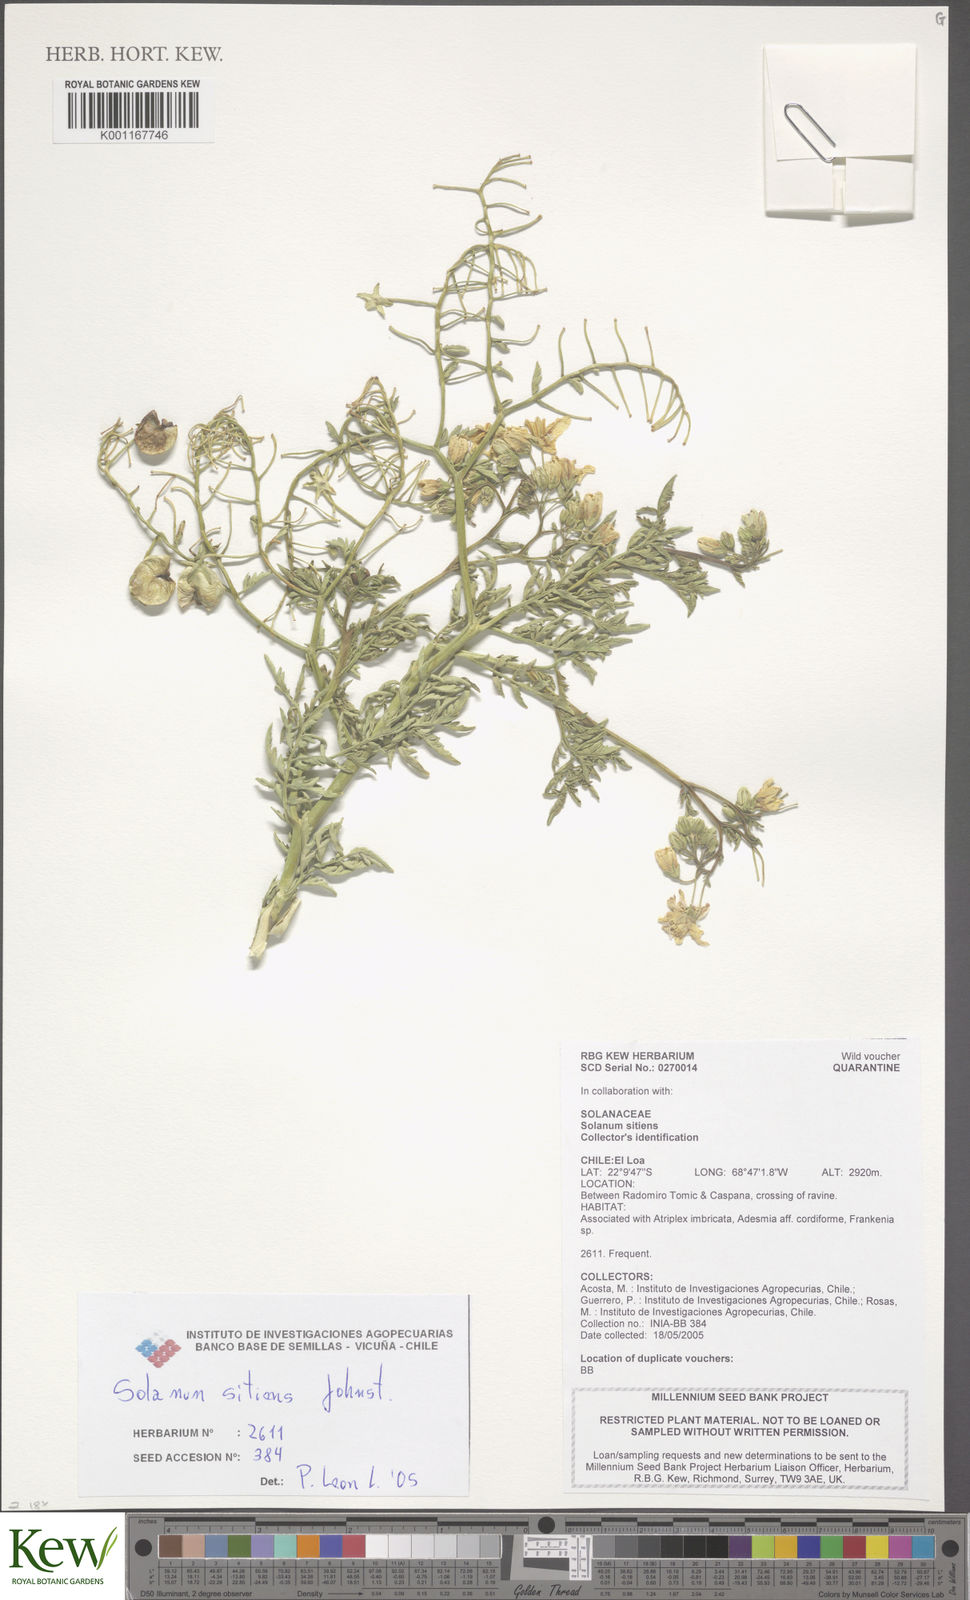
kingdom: Plantae
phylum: Tracheophyta
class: Magnoliopsida
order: Solanales
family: Solanaceae
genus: Solanum
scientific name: Solanum sitiens
